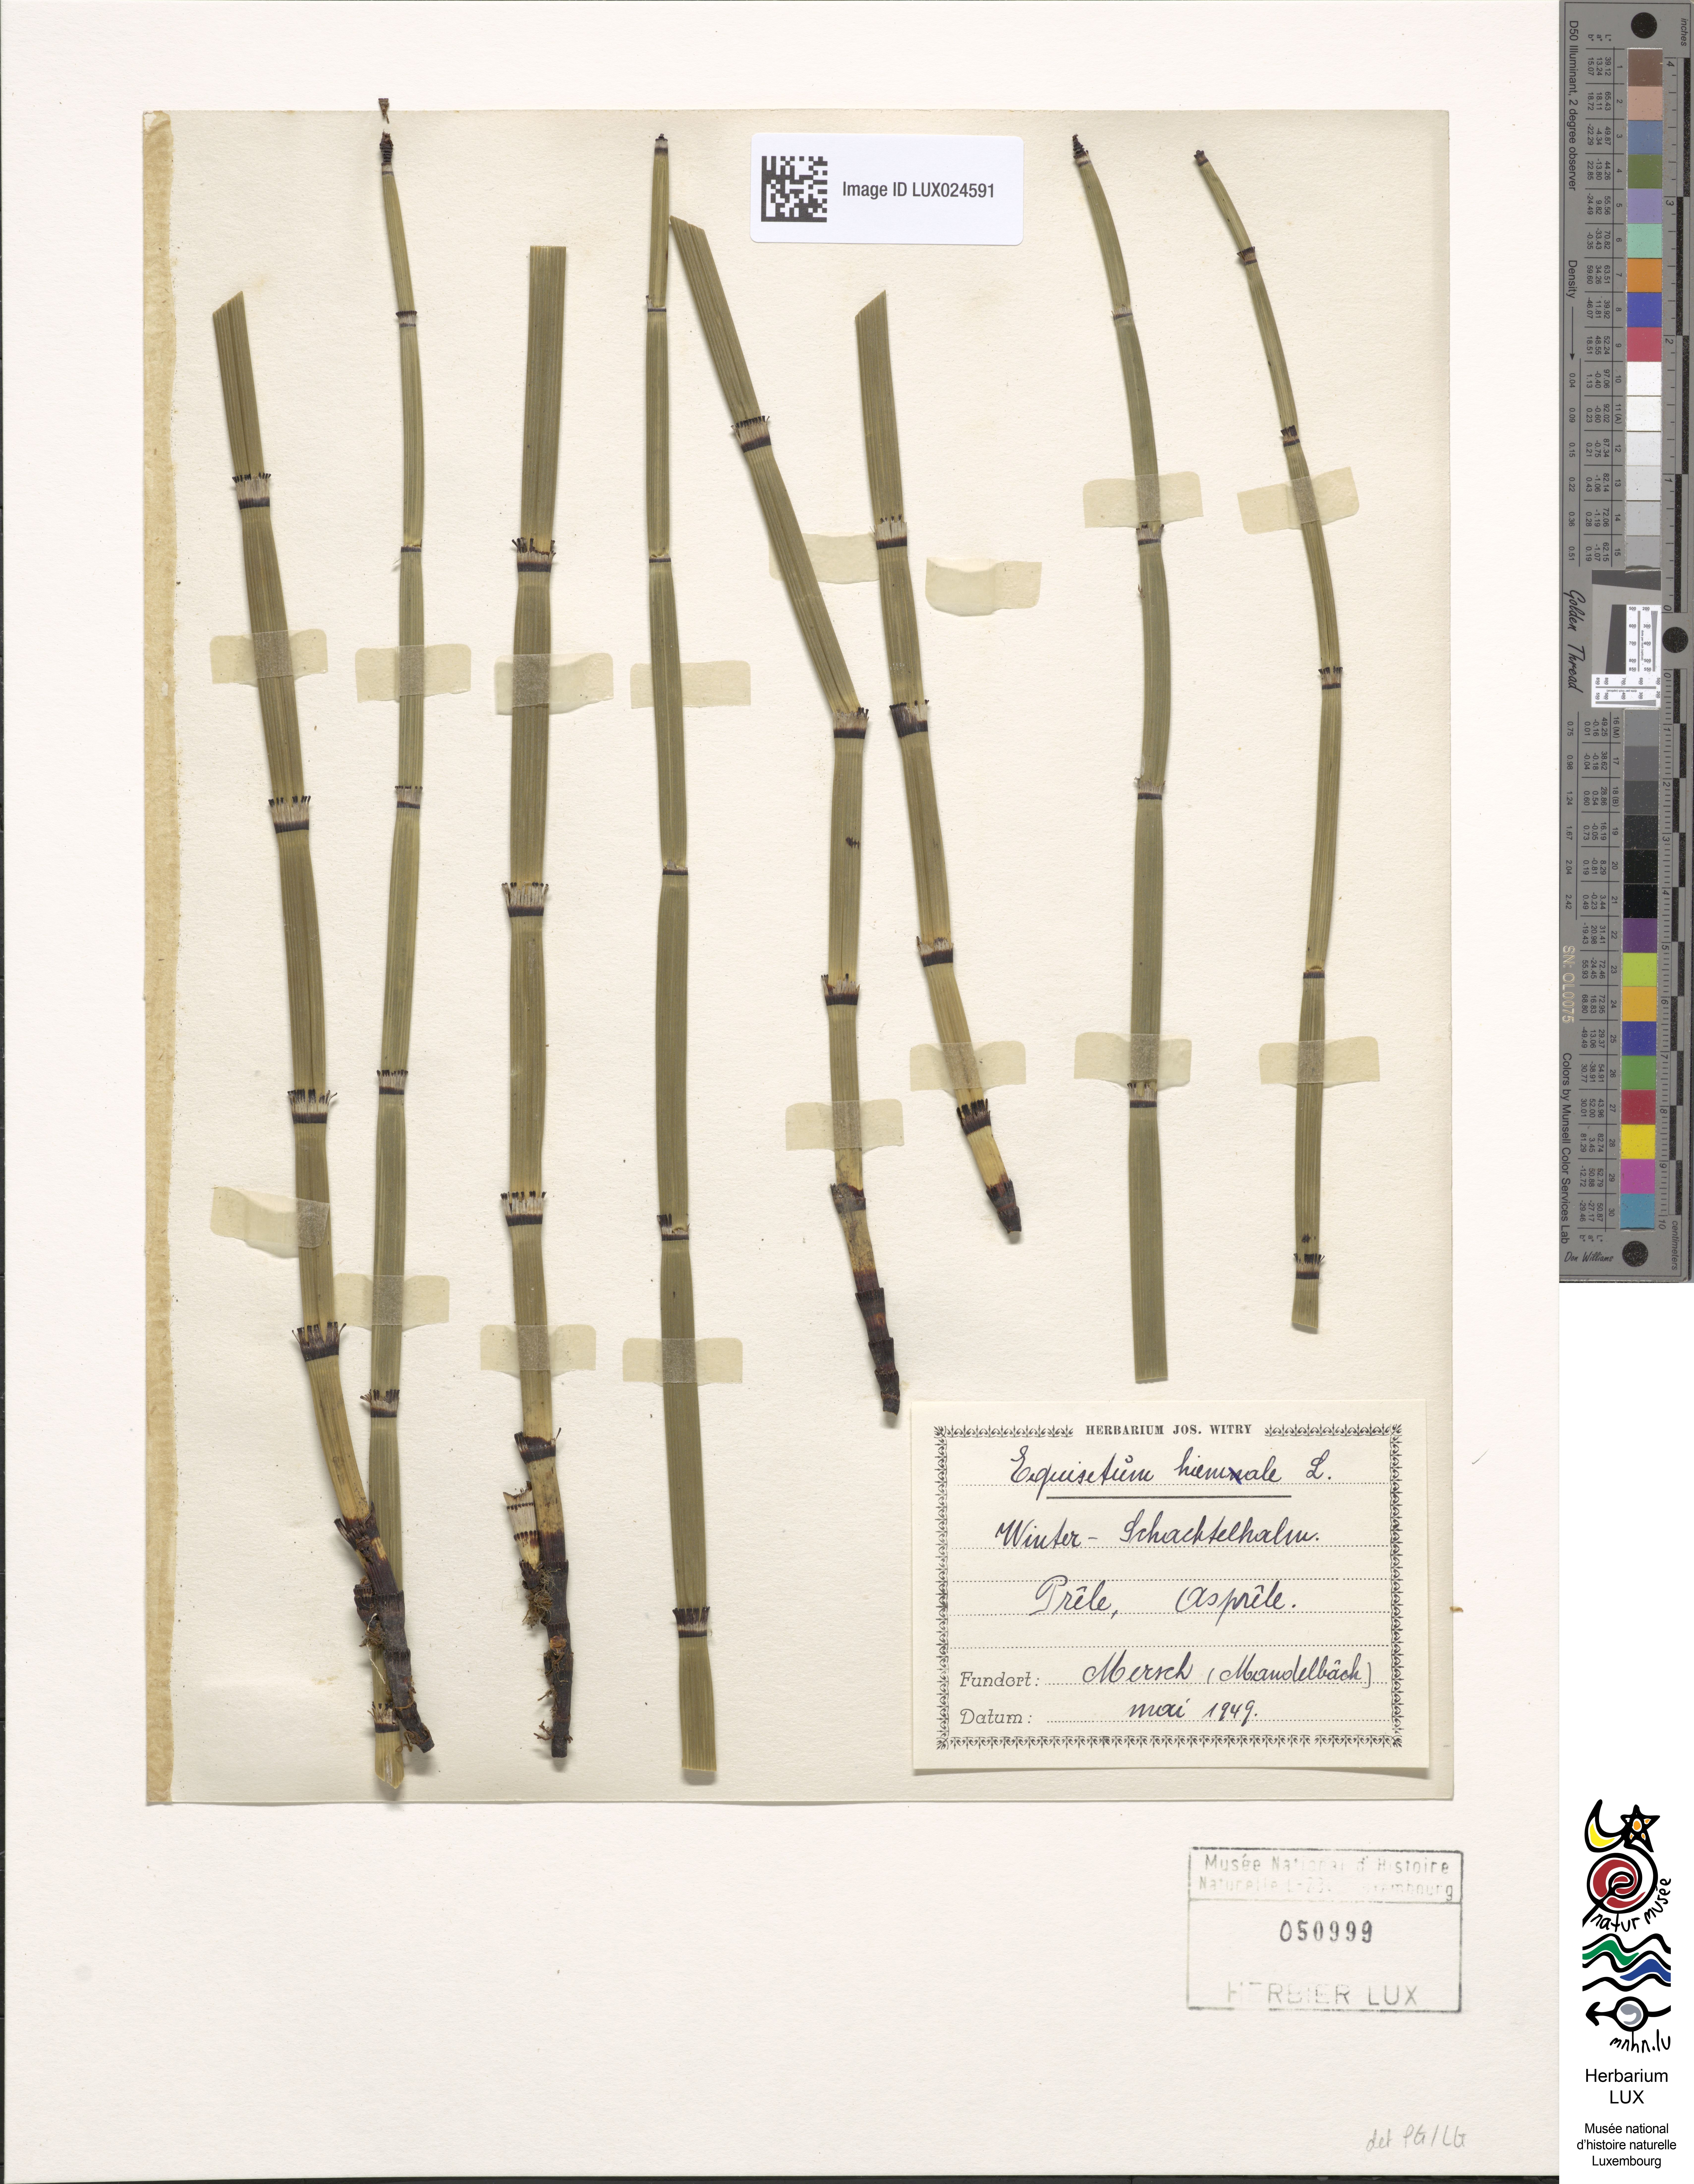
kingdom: Plantae
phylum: Tracheophyta
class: Polypodiopsida
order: Equisetales
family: Equisetaceae
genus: Equisetum
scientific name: Equisetum hyemale
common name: Rough horsetail
